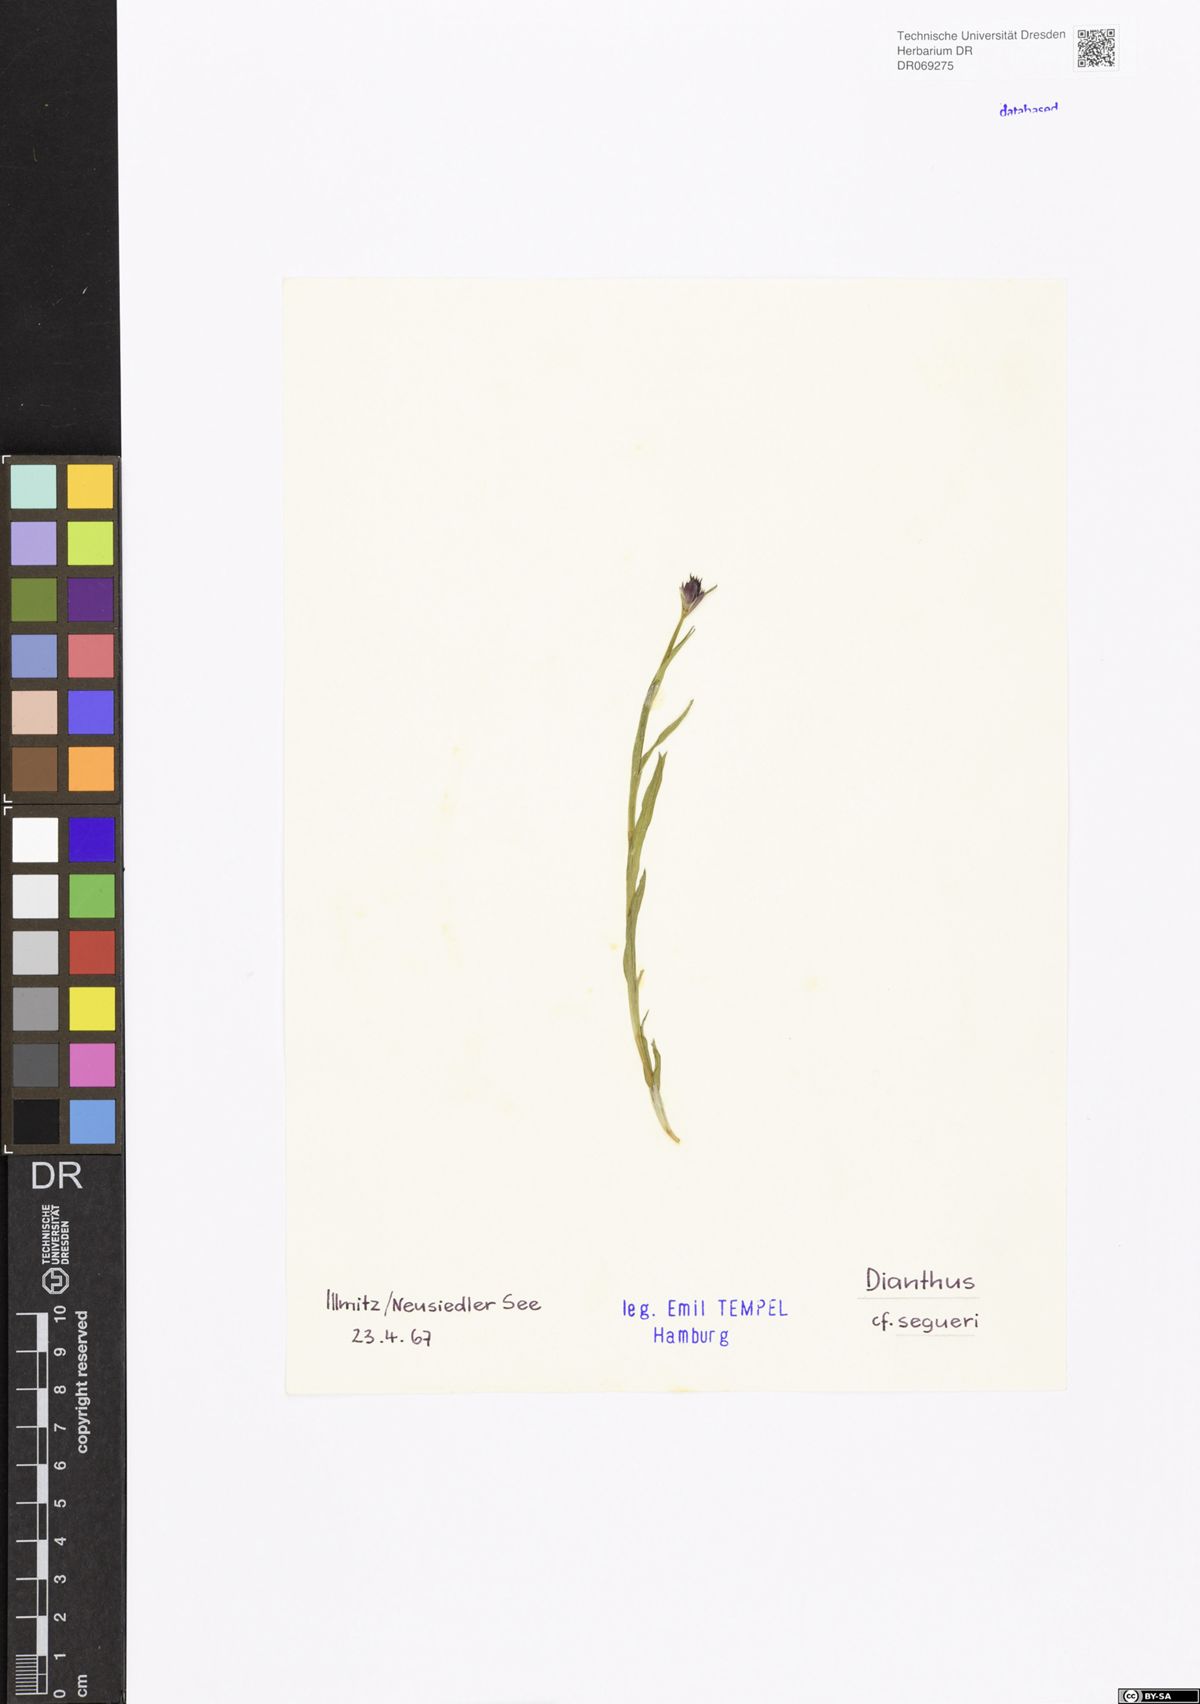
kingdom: Plantae
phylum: Tracheophyta
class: Magnoliopsida
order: Caryophyllales
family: Caryophyllaceae
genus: Dianthus
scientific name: Dianthus seguieri
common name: Ragged pink
